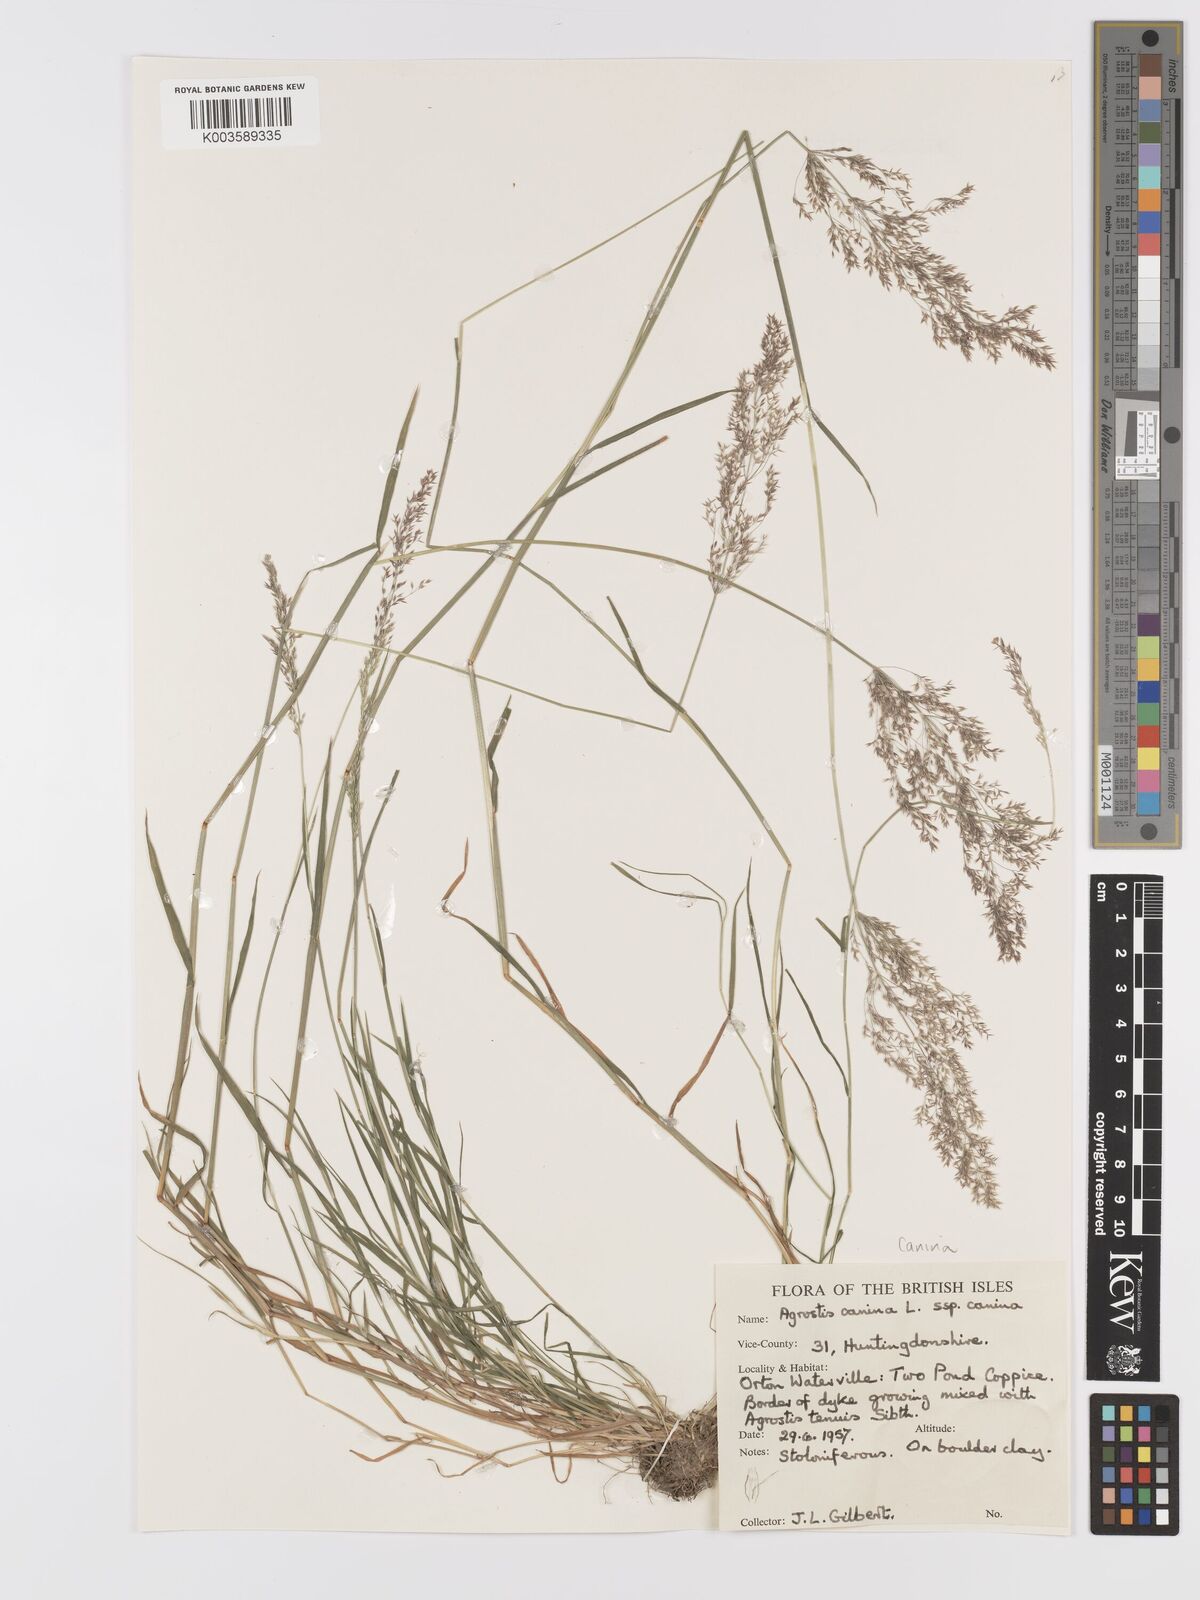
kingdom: Plantae
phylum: Tracheophyta
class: Liliopsida
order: Poales
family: Poaceae
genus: Agrostis
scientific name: Agrostis canina
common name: Velvet bent
